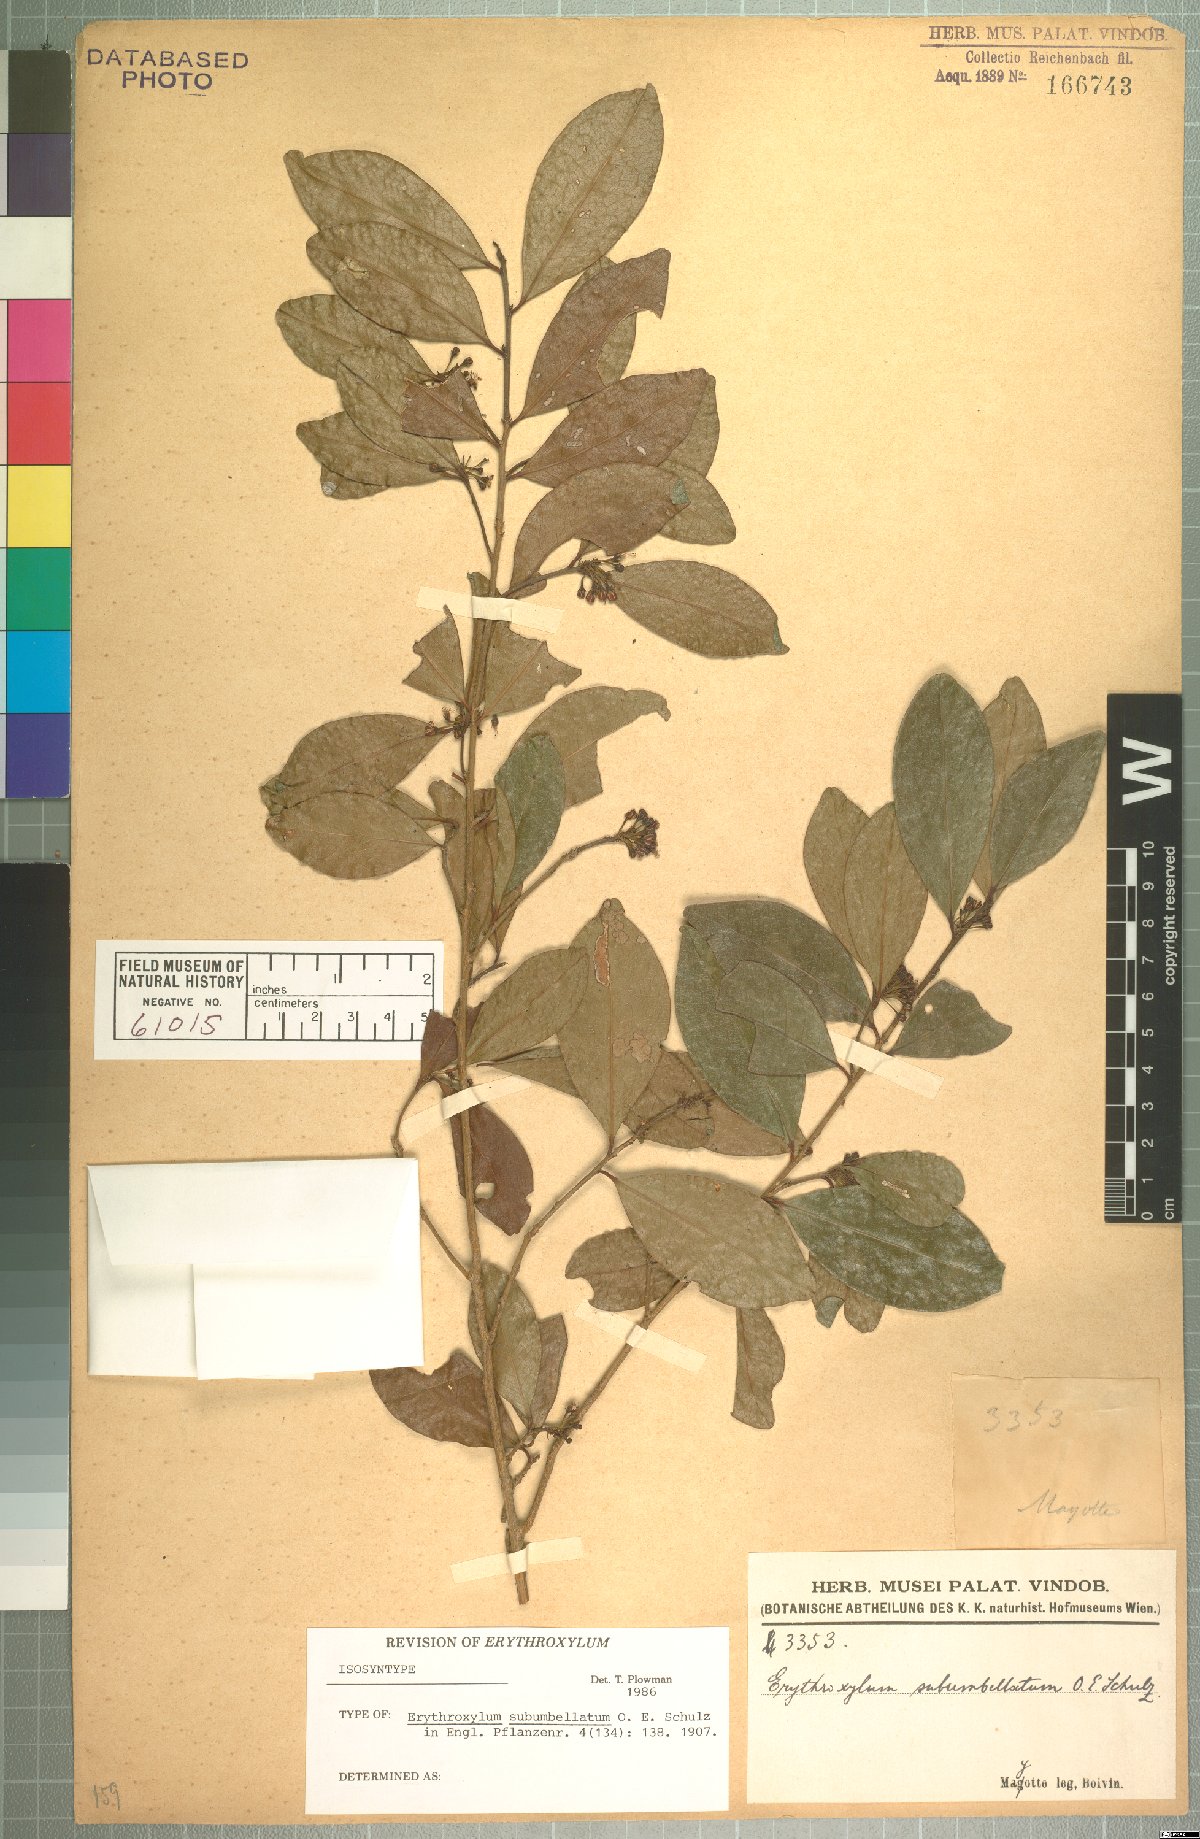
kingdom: Plantae
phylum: Tracheophyta
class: Magnoliopsida
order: Malpighiales
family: Erythroxylaceae
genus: Erythroxylum
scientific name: Erythroxylum lanceum
